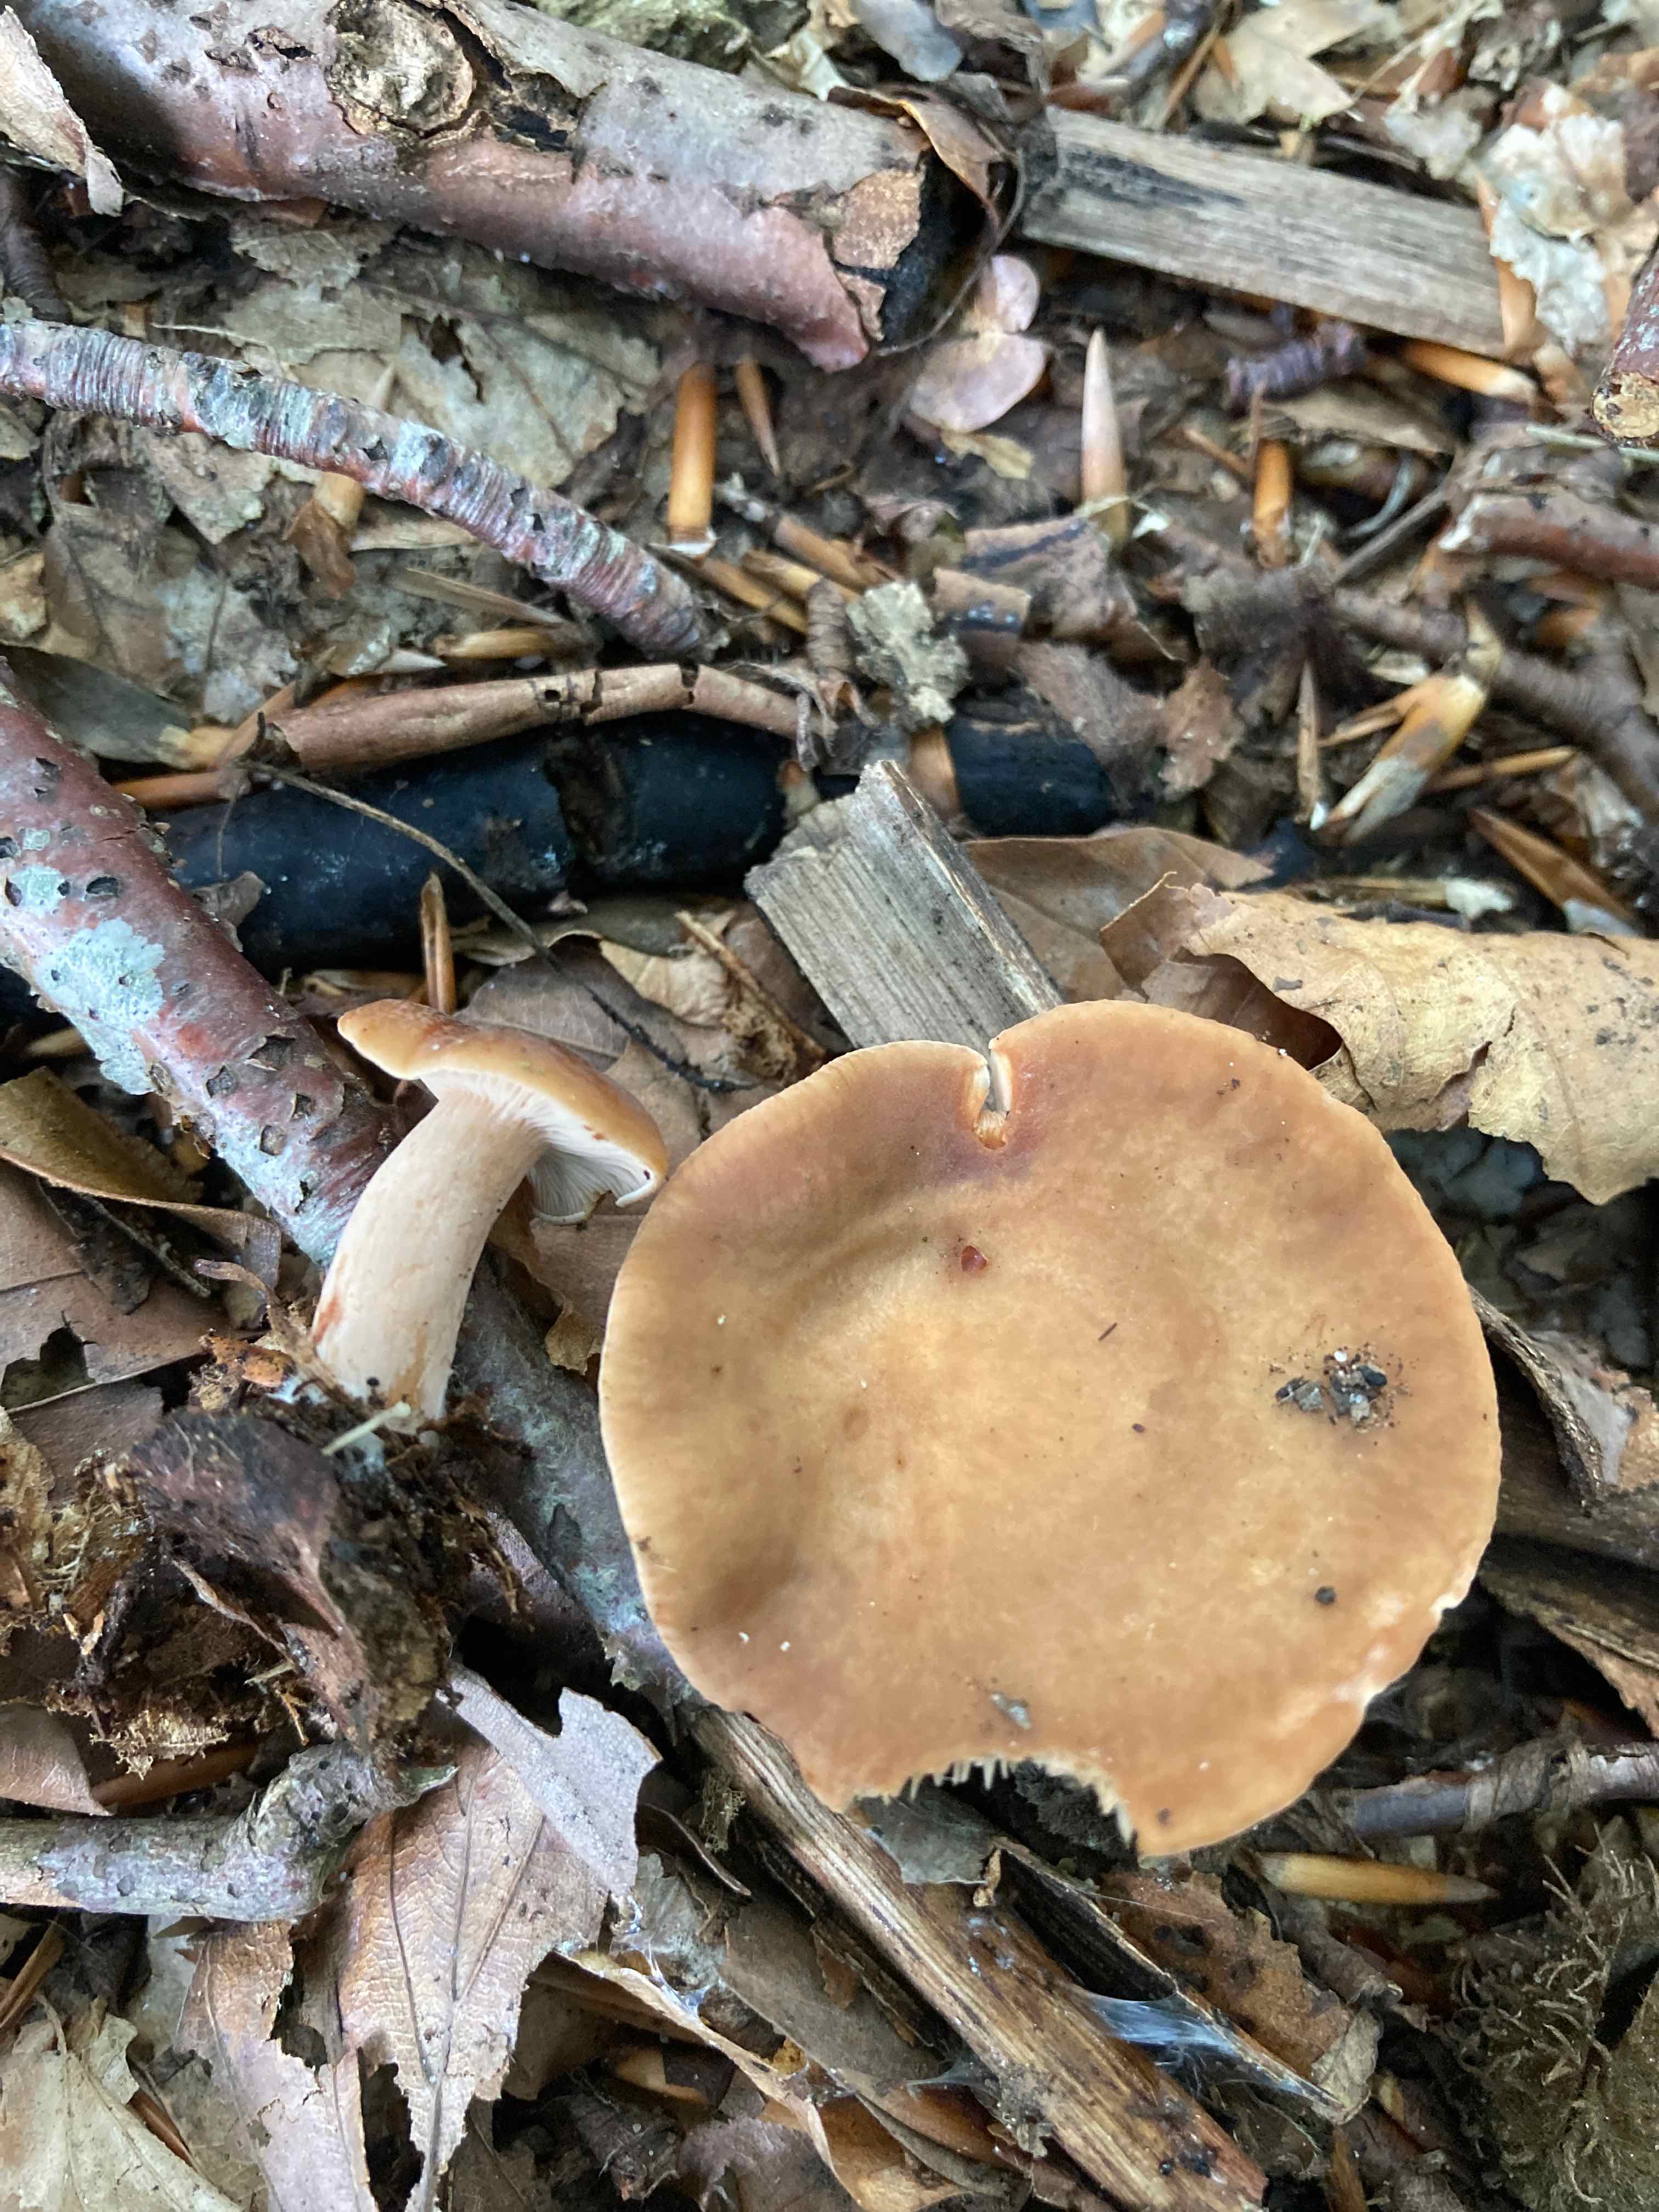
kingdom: Fungi
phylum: Basidiomycota
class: Agaricomycetes
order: Russulales
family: Russulaceae
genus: Lactarius
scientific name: Lactarius subdulcis
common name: sødlig mælkehat
